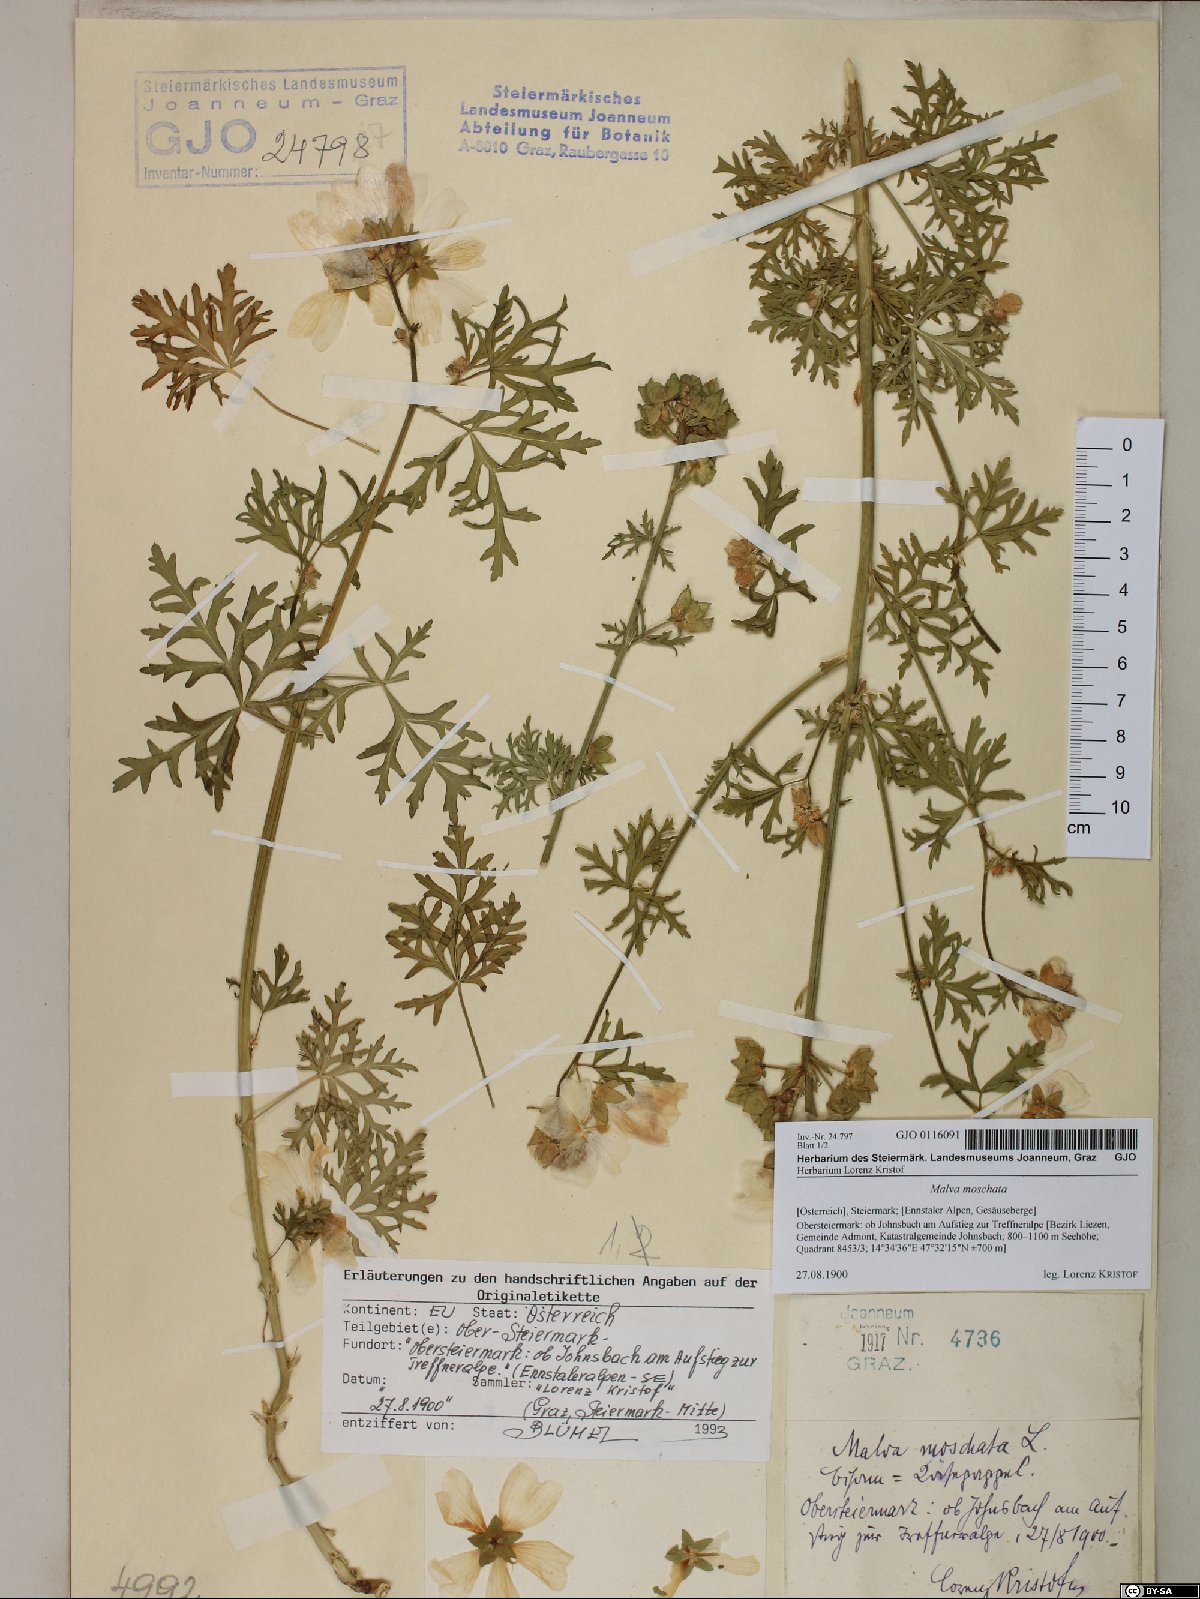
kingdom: Plantae
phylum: Tracheophyta
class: Magnoliopsida
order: Malvales
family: Malvaceae
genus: Malva
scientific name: Malva moschata
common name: Musk mallow
